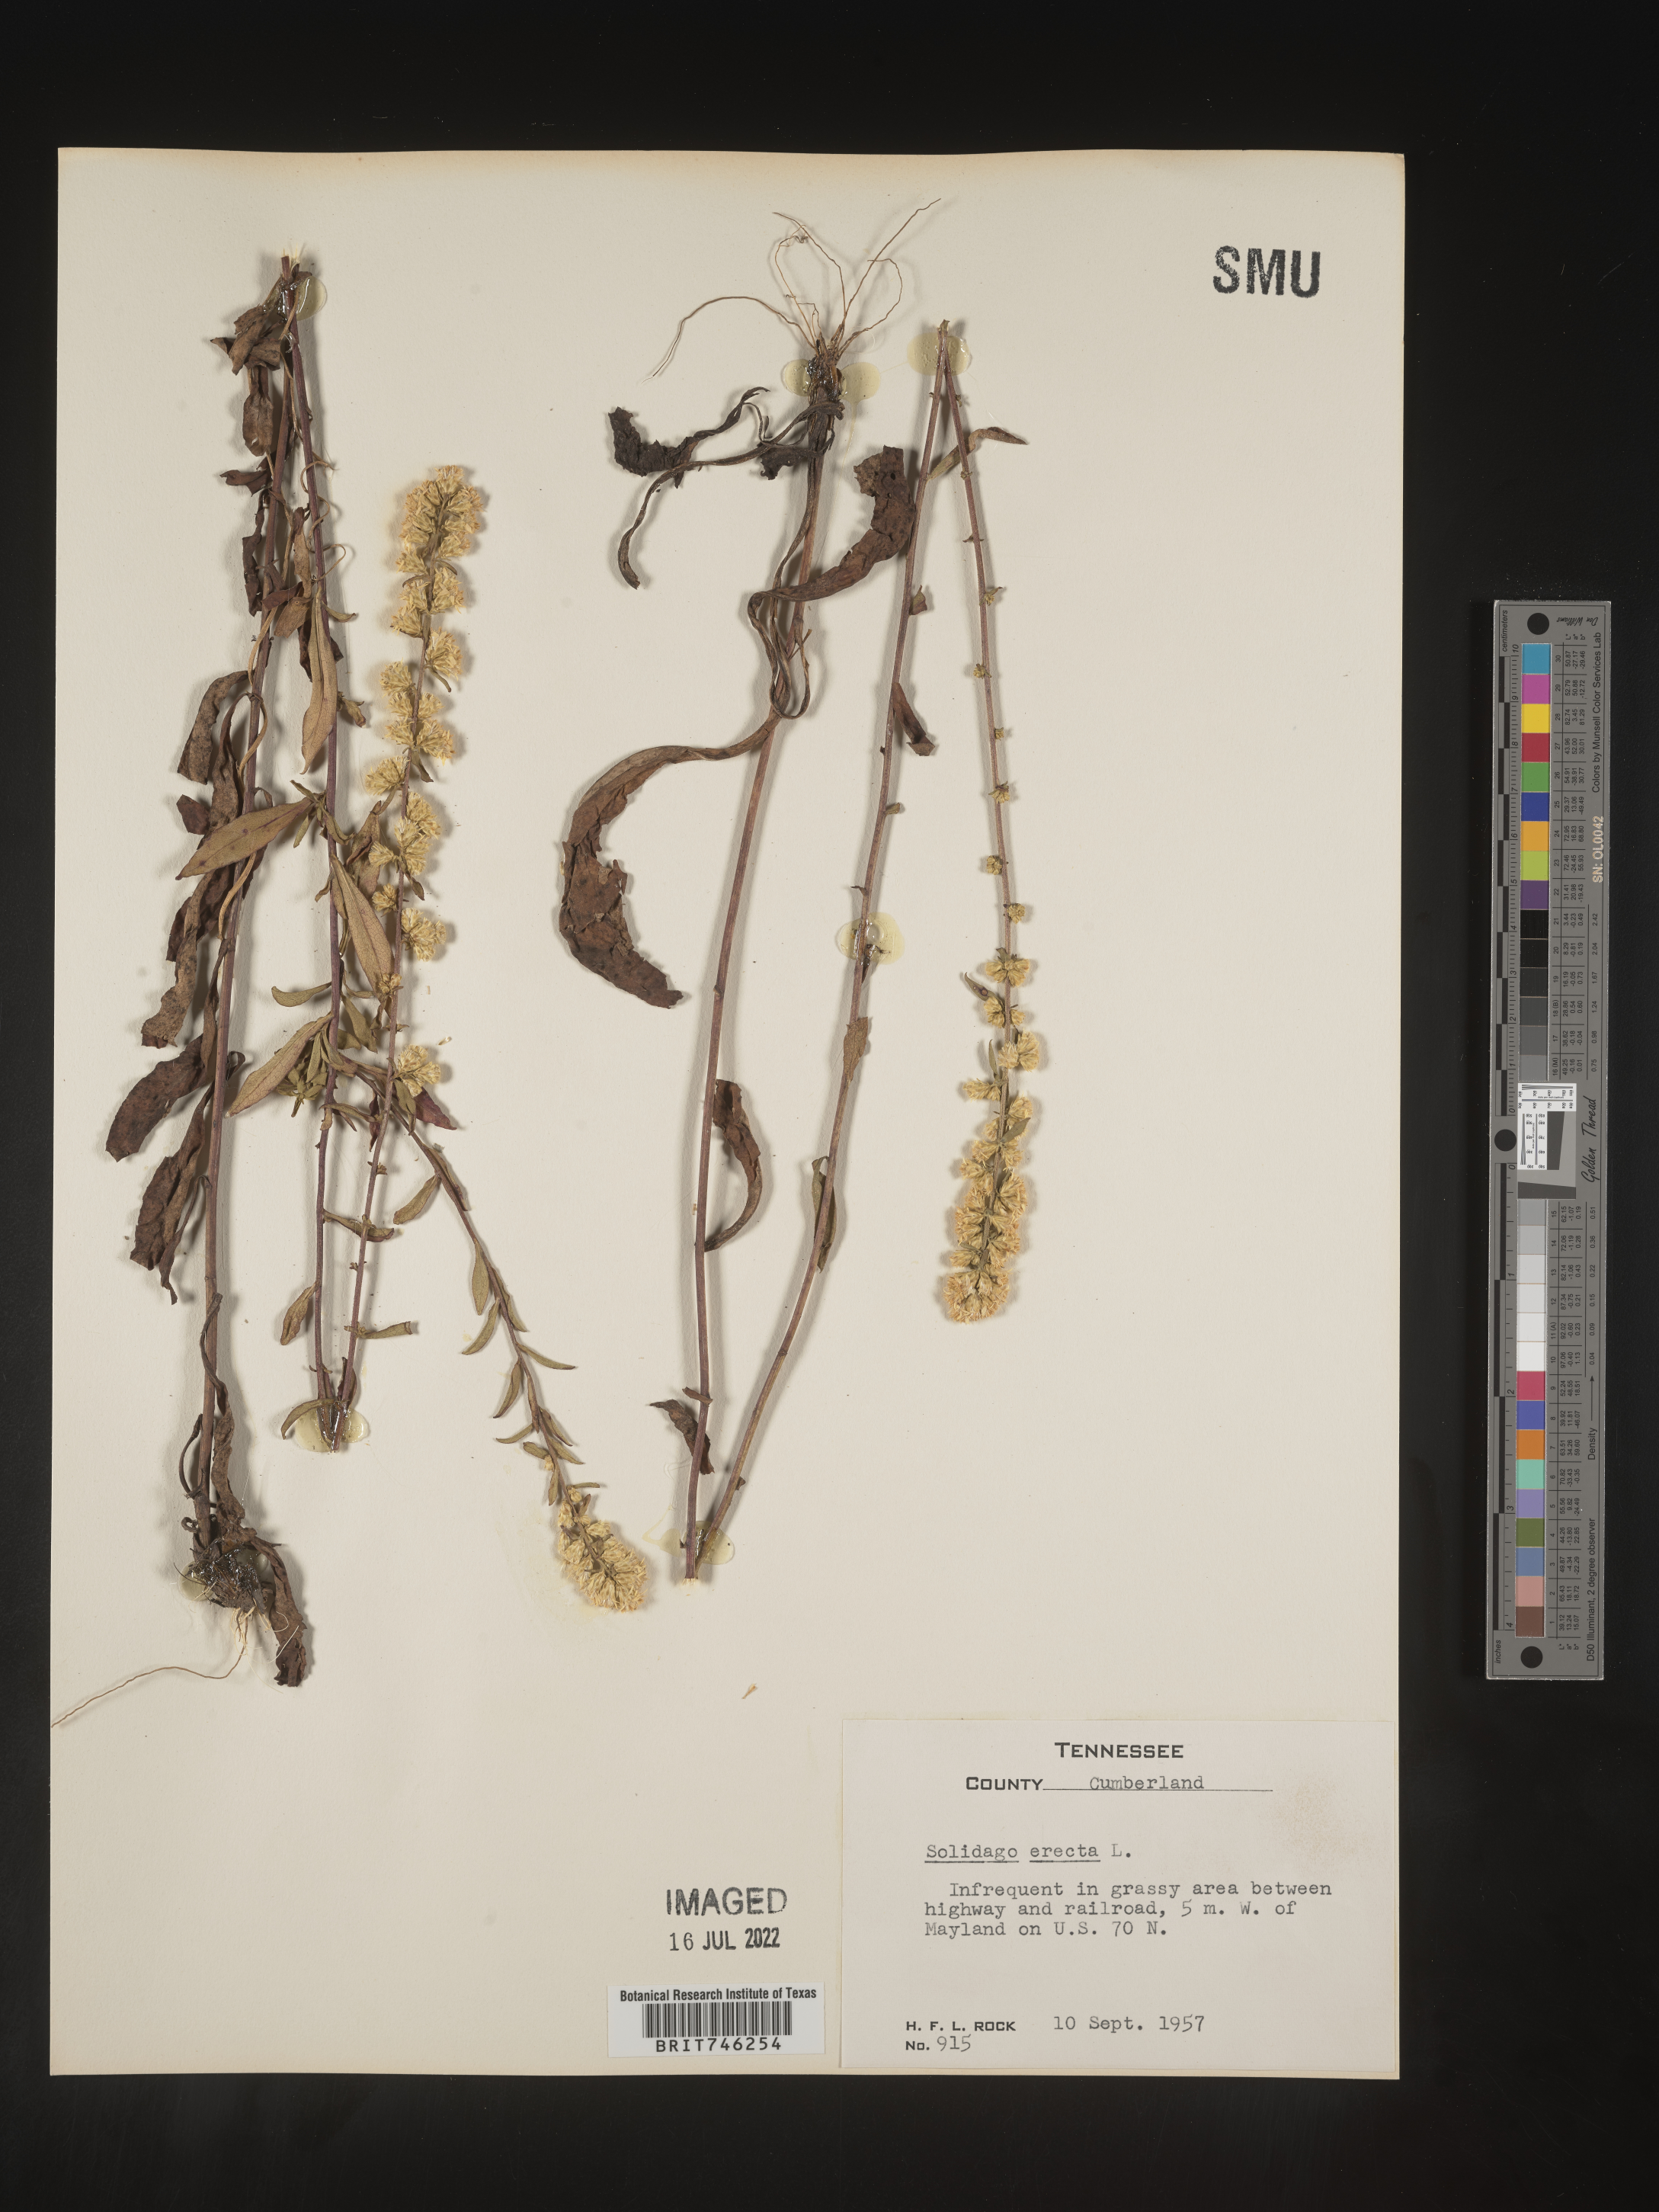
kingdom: Plantae
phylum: Tracheophyta
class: Magnoliopsida
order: Asterales
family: Asteraceae
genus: Solidago
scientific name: Solidago erecta
